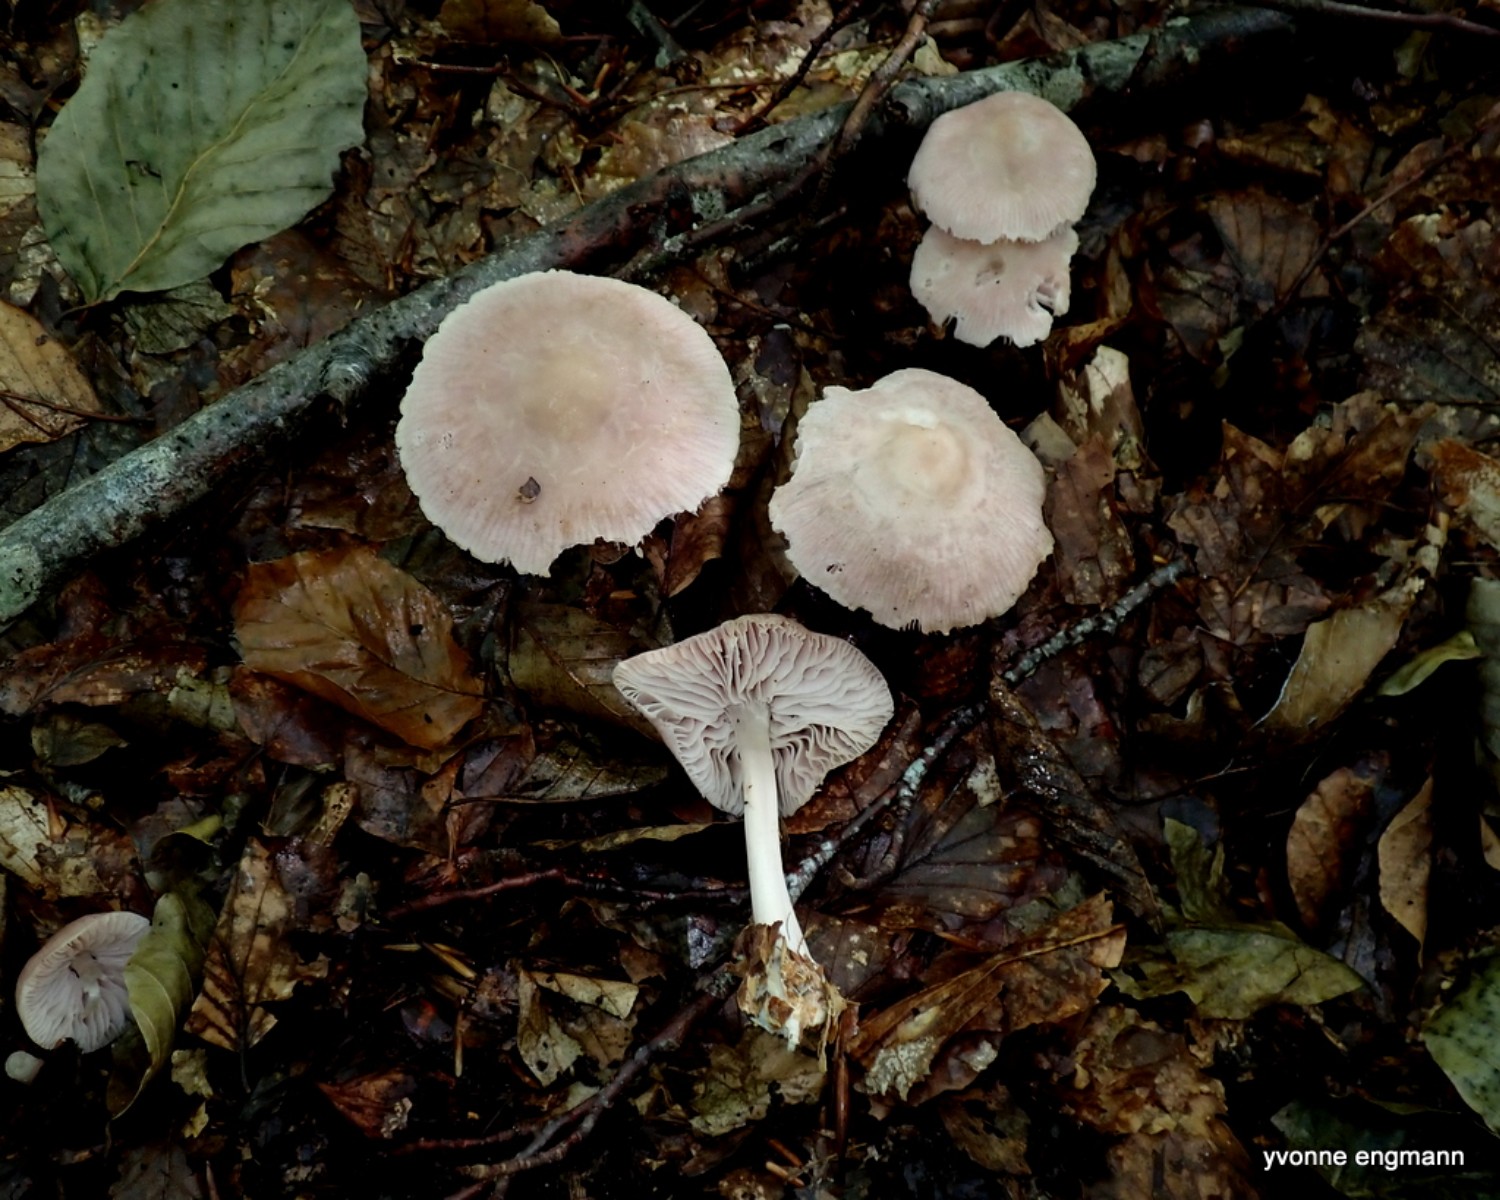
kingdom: Fungi
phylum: Basidiomycota
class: Agaricomycetes
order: Agaricales
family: Mycenaceae
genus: Mycena
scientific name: Mycena rosea
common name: rosa huesvamp
